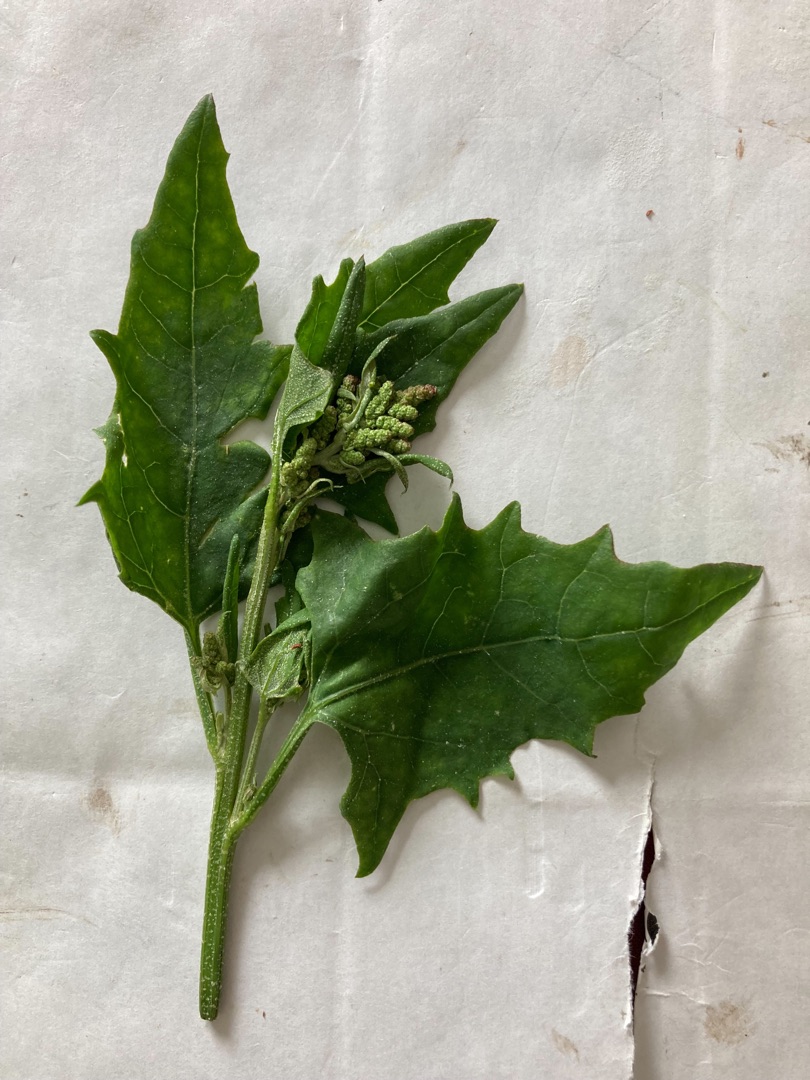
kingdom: Plantae
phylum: Tracheophyta
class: Magnoliopsida
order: Caryophyllales
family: Amaranthaceae
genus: Atriplex
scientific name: Atriplex prostrata
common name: Spyd-mælde
